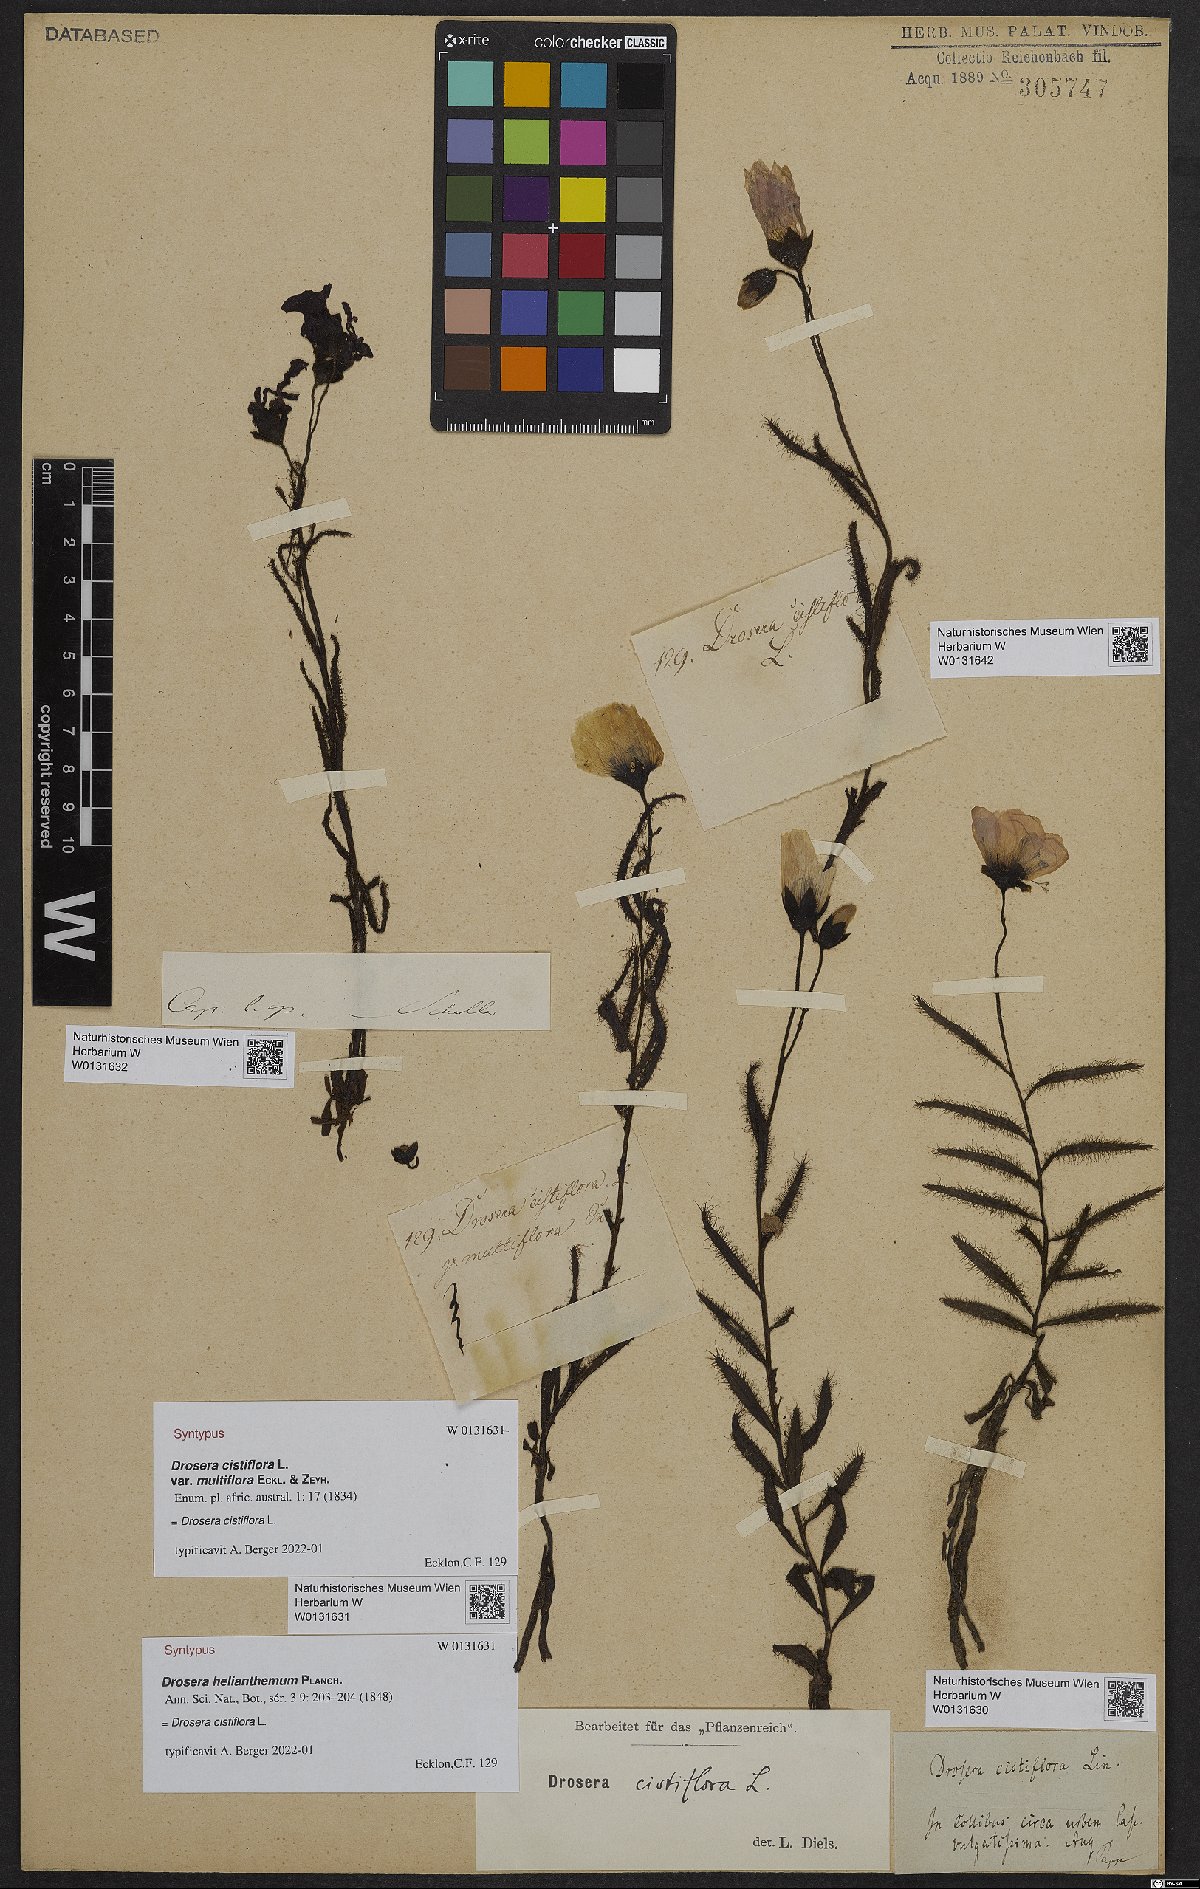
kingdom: Plantae
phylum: Tracheophyta
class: Magnoliopsida
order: Caryophyllales
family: Droseraceae
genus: Drosera
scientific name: Drosera cistiflora
